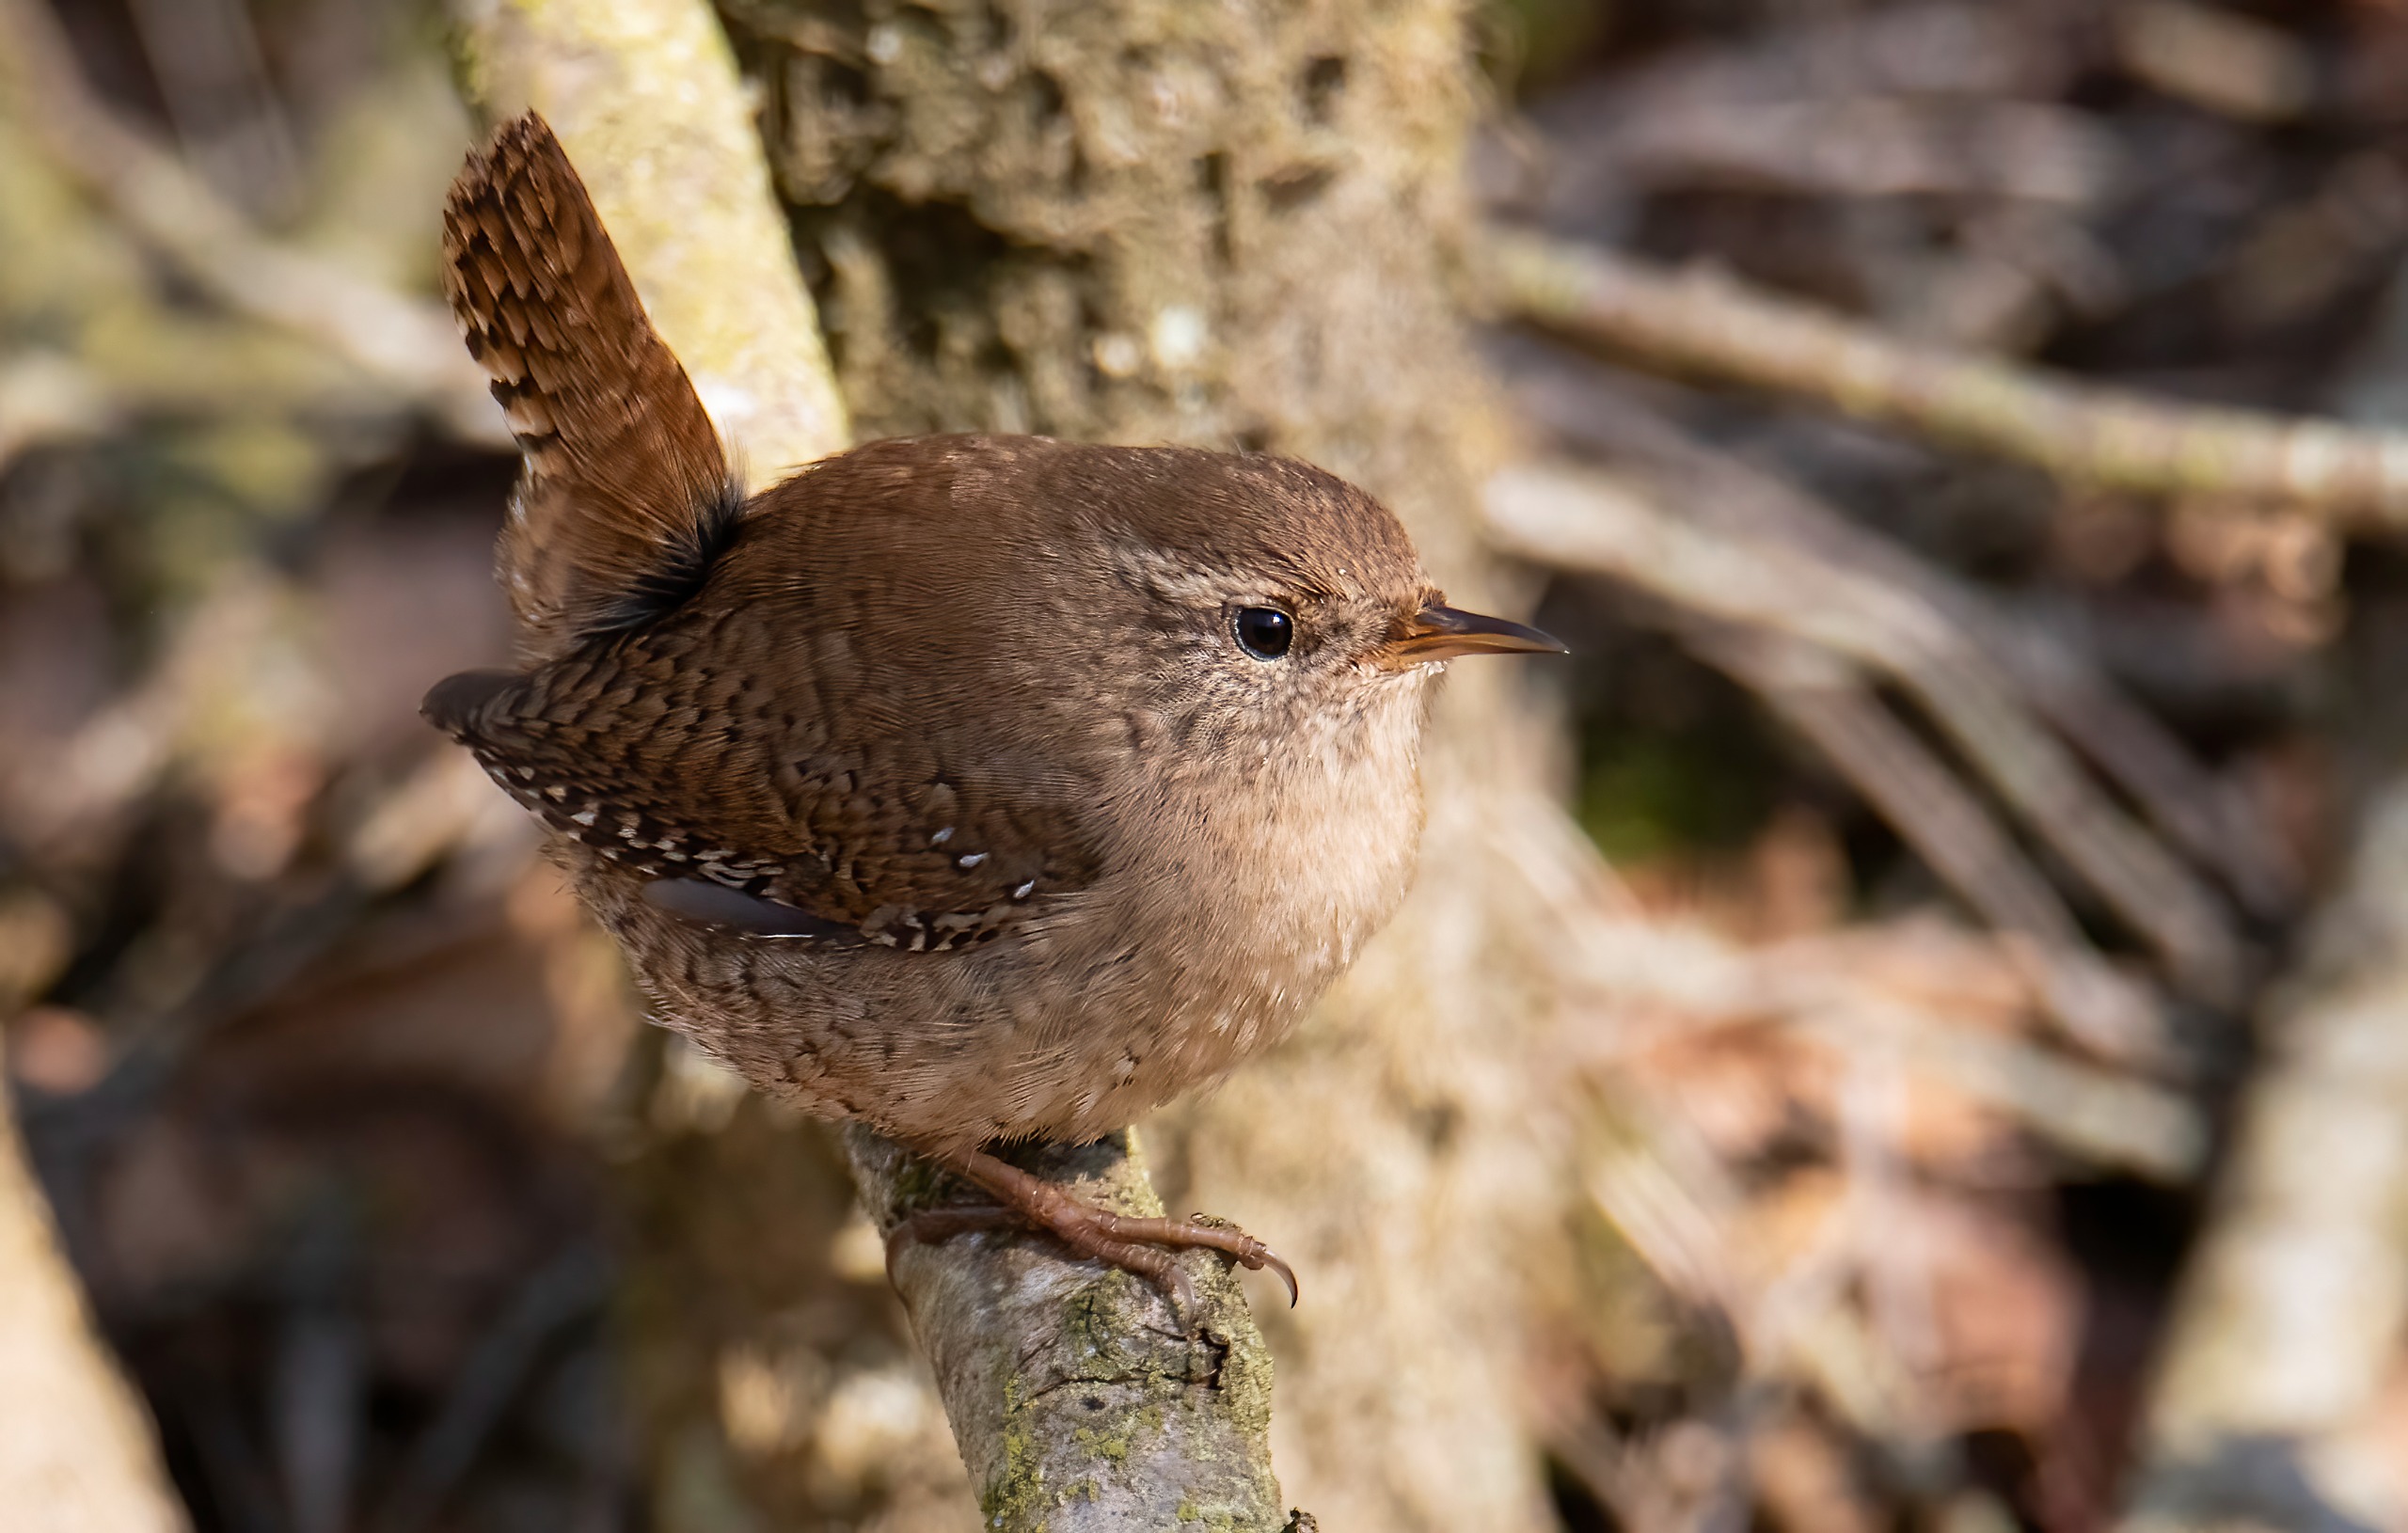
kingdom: Animalia
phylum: Chordata
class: Aves
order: Passeriformes
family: Troglodytidae
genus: Troglodytes
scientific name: Troglodytes troglodytes
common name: Gærdesmutte
